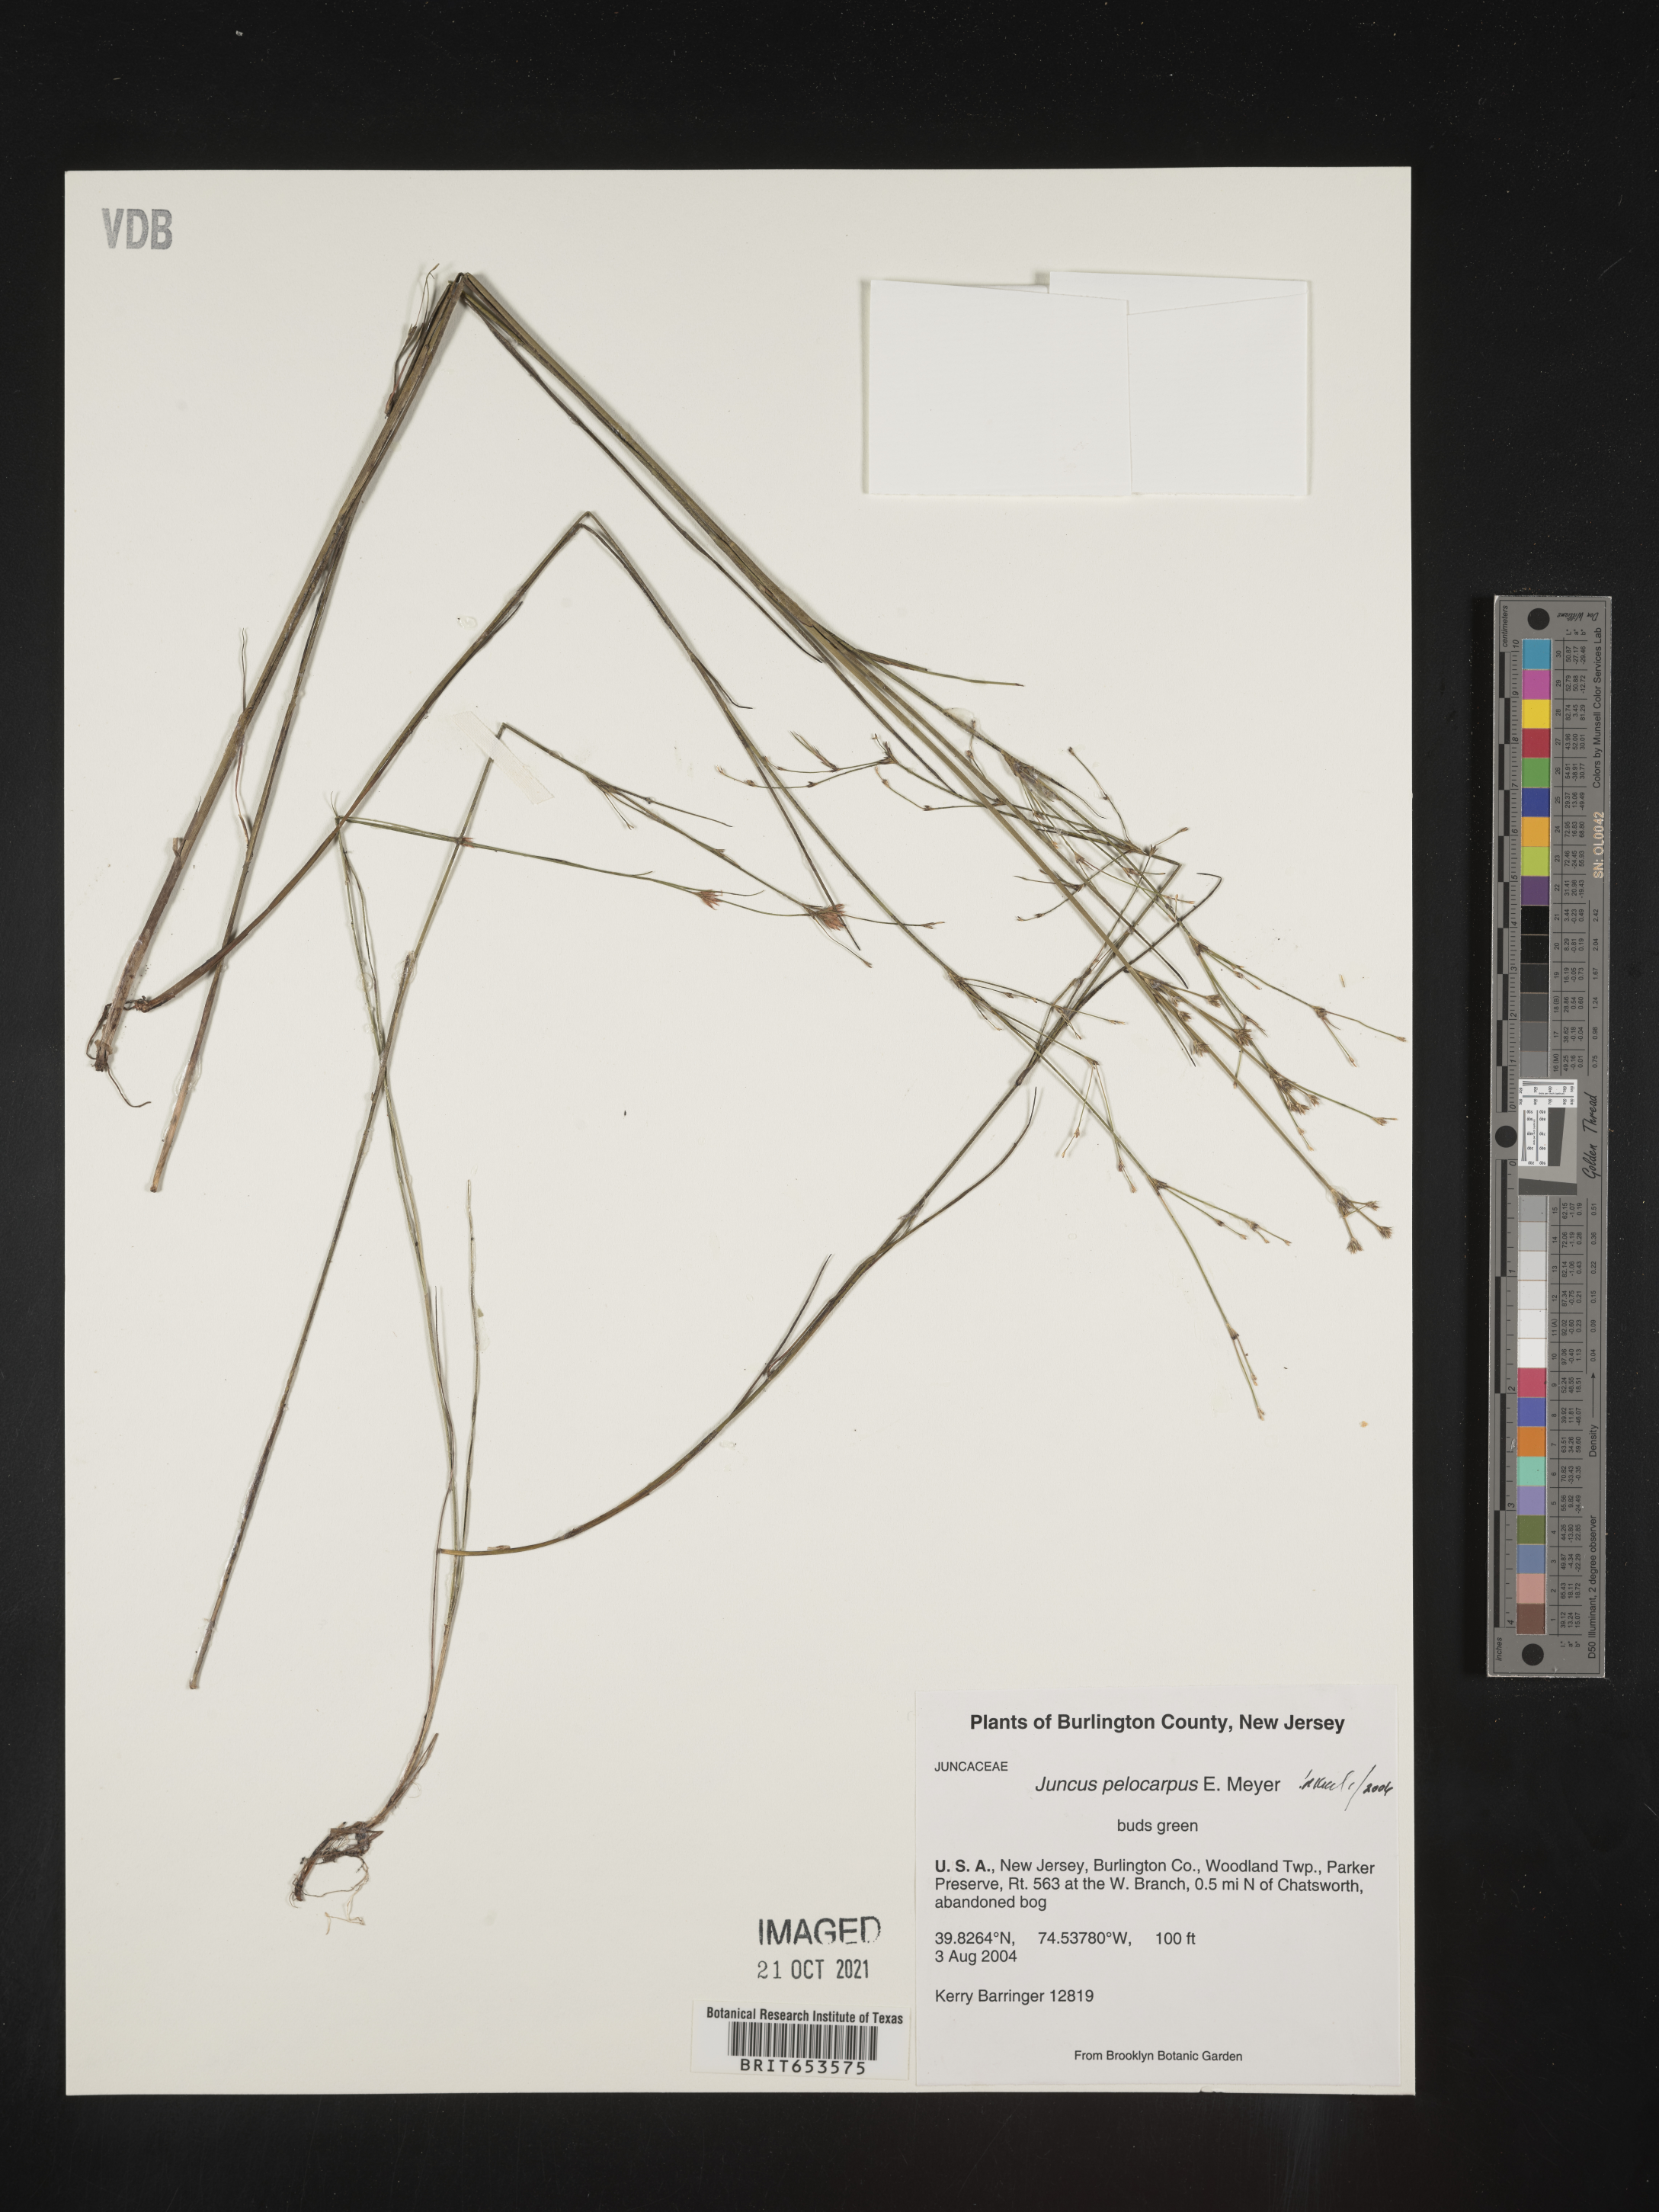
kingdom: Plantae
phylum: Tracheophyta
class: Liliopsida
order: Poales
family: Juncaceae
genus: Juncus
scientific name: Juncus pelocarpus
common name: Brown-fruited rush
